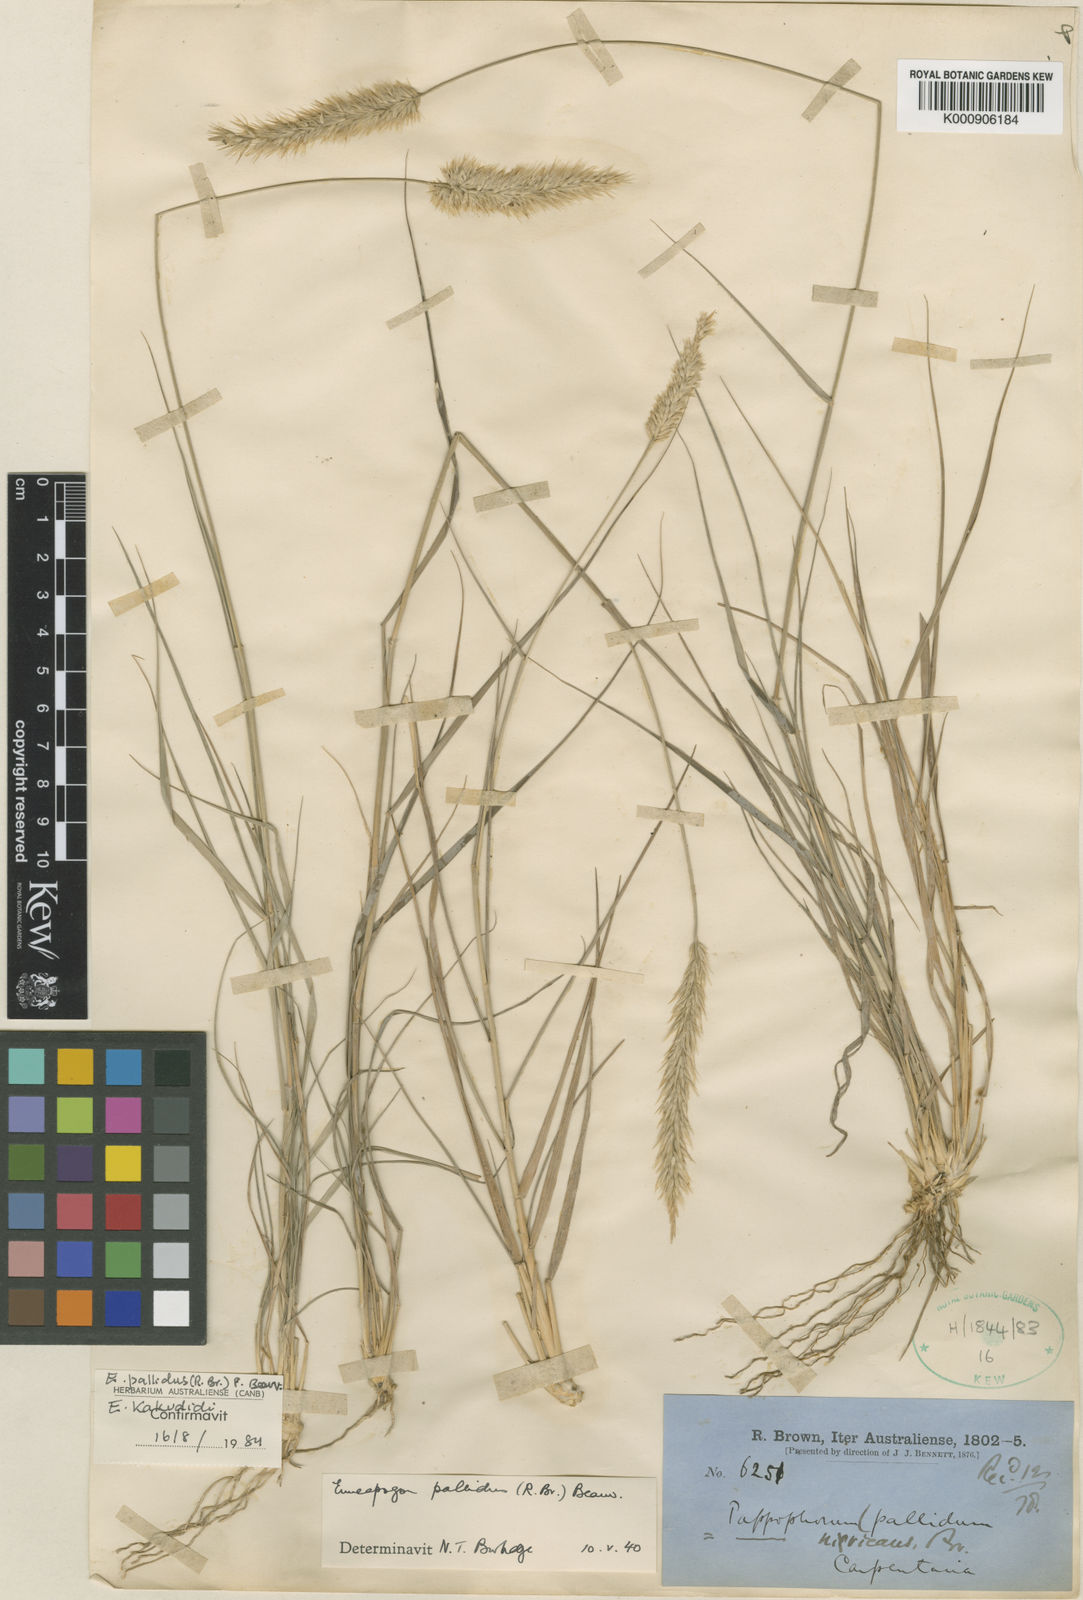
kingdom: Plantae
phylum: Tracheophyta
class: Liliopsida
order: Poales
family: Poaceae
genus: Enneapogon
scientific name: Enneapogon pallidus
